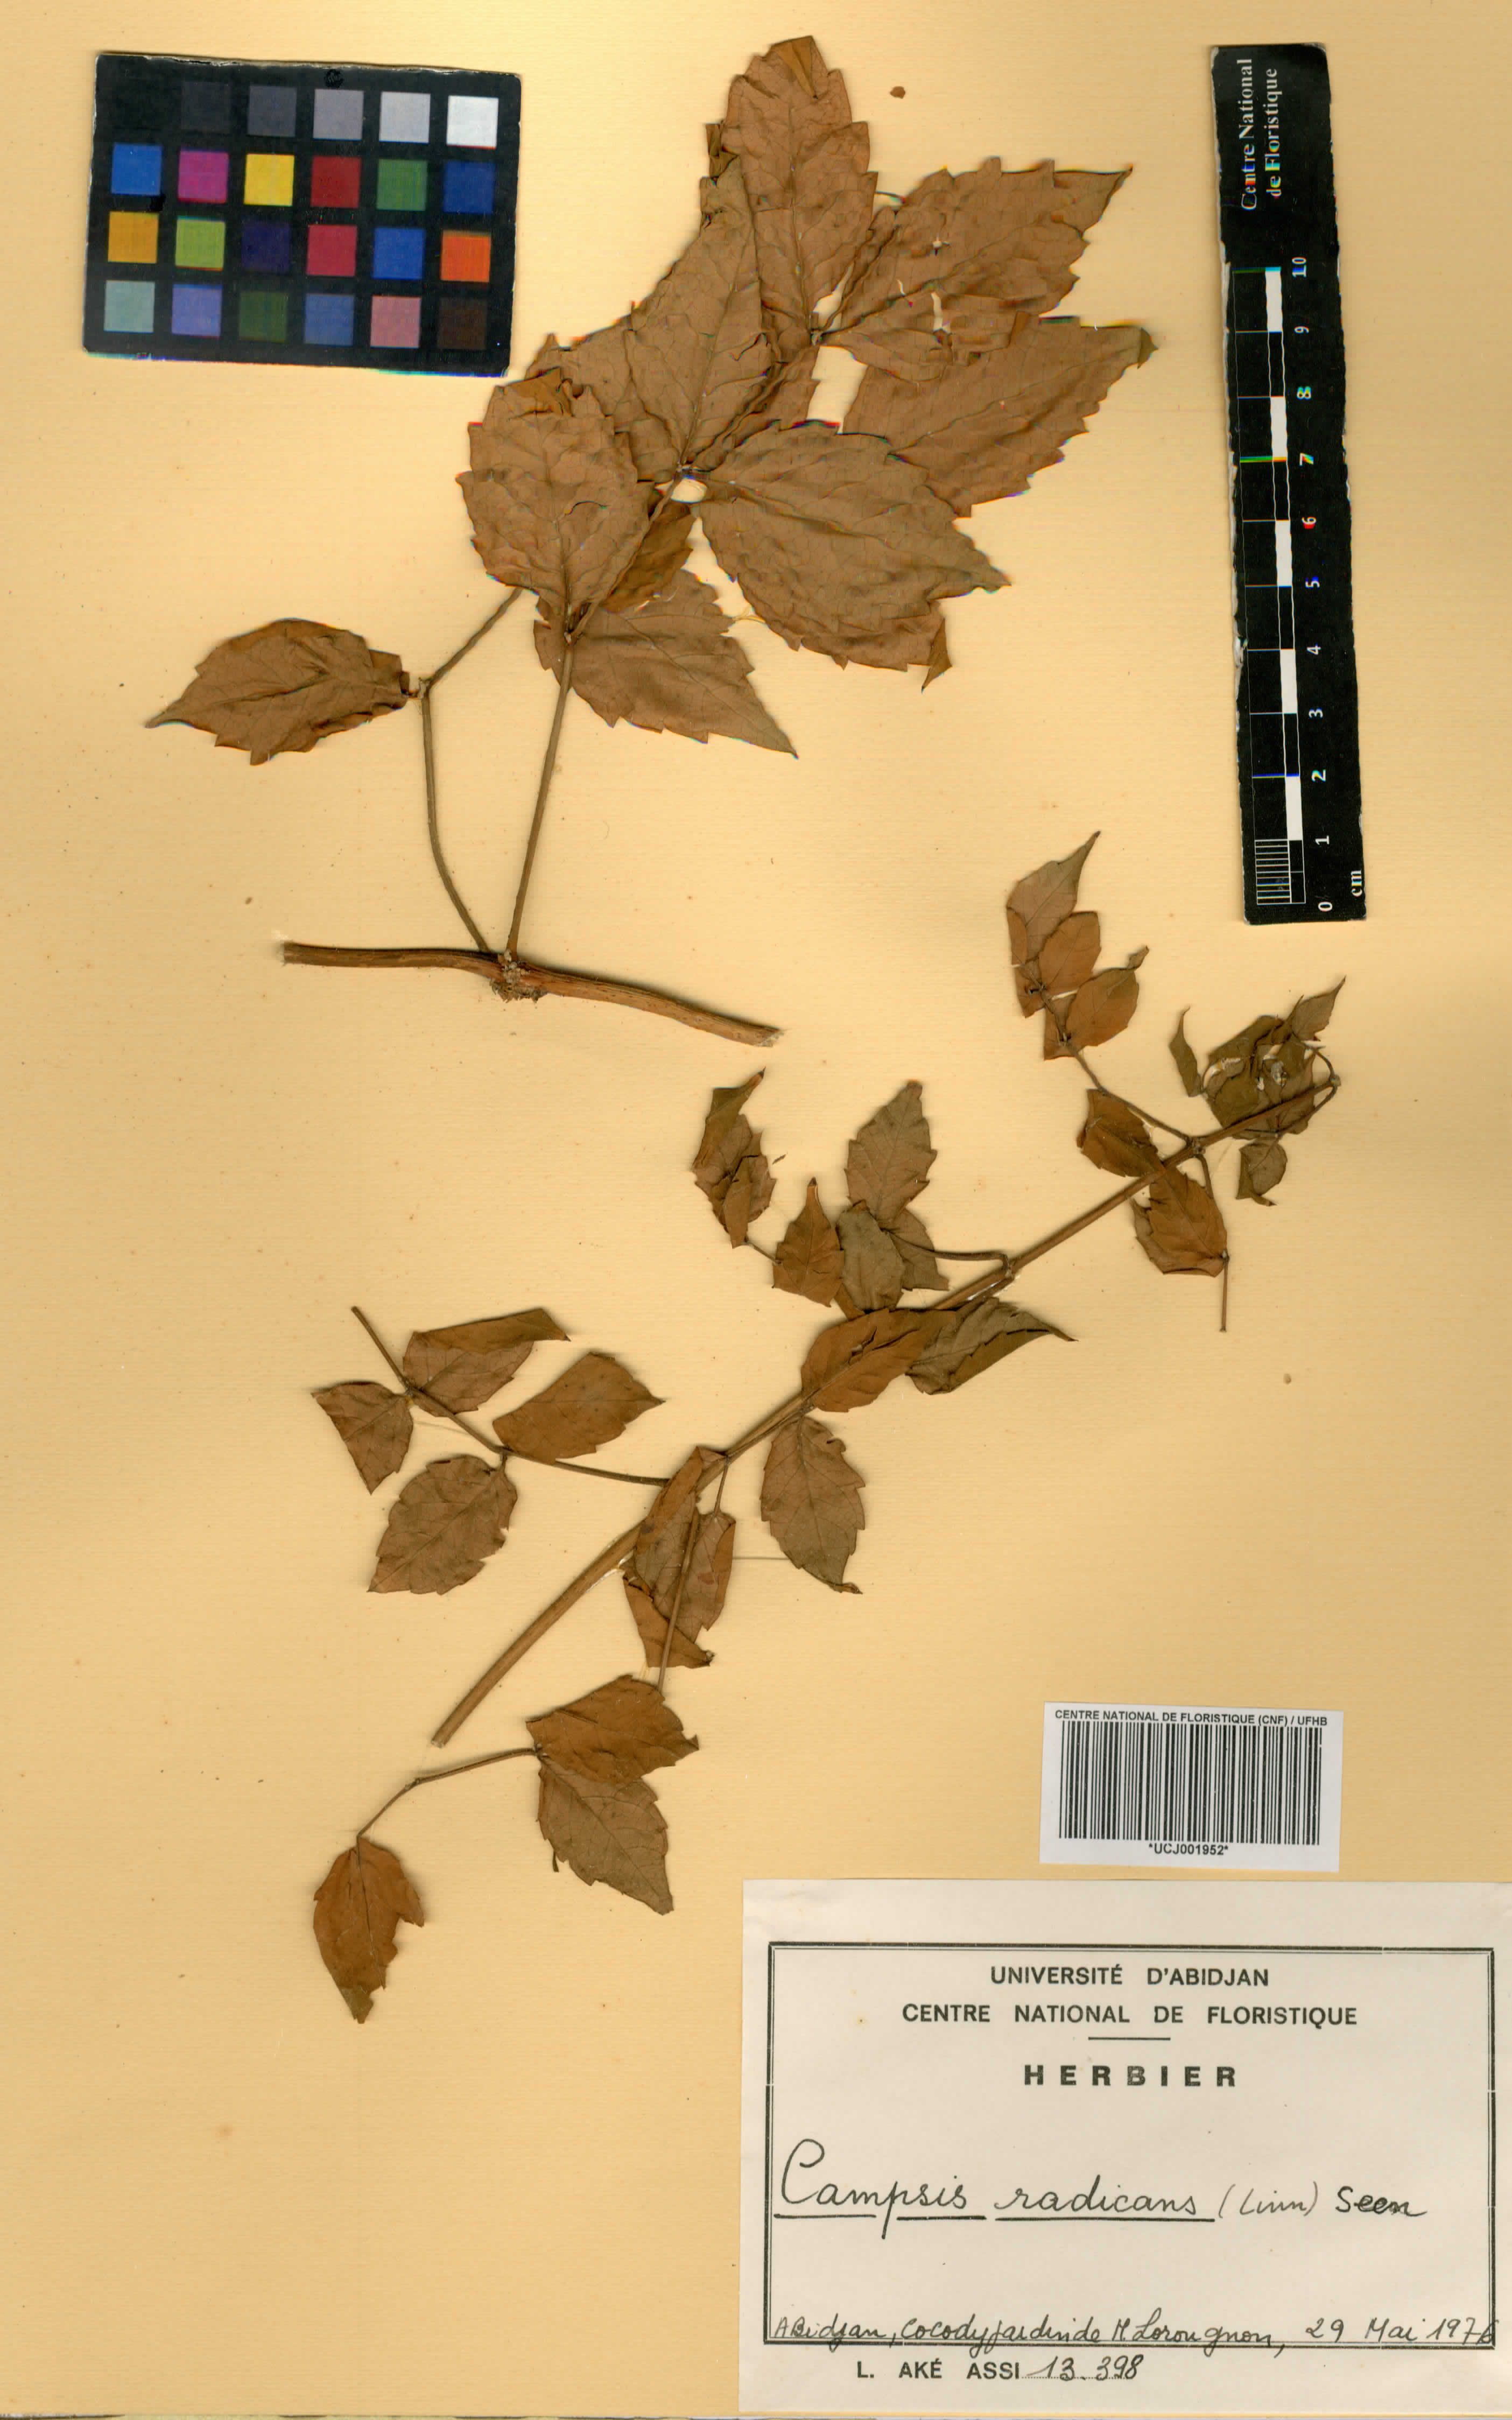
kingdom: Plantae
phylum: Tracheophyta
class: Magnoliopsida
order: Lamiales
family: Bignoniaceae
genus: Campsis
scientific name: Campsis radicans
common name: Trumpet-creeper
